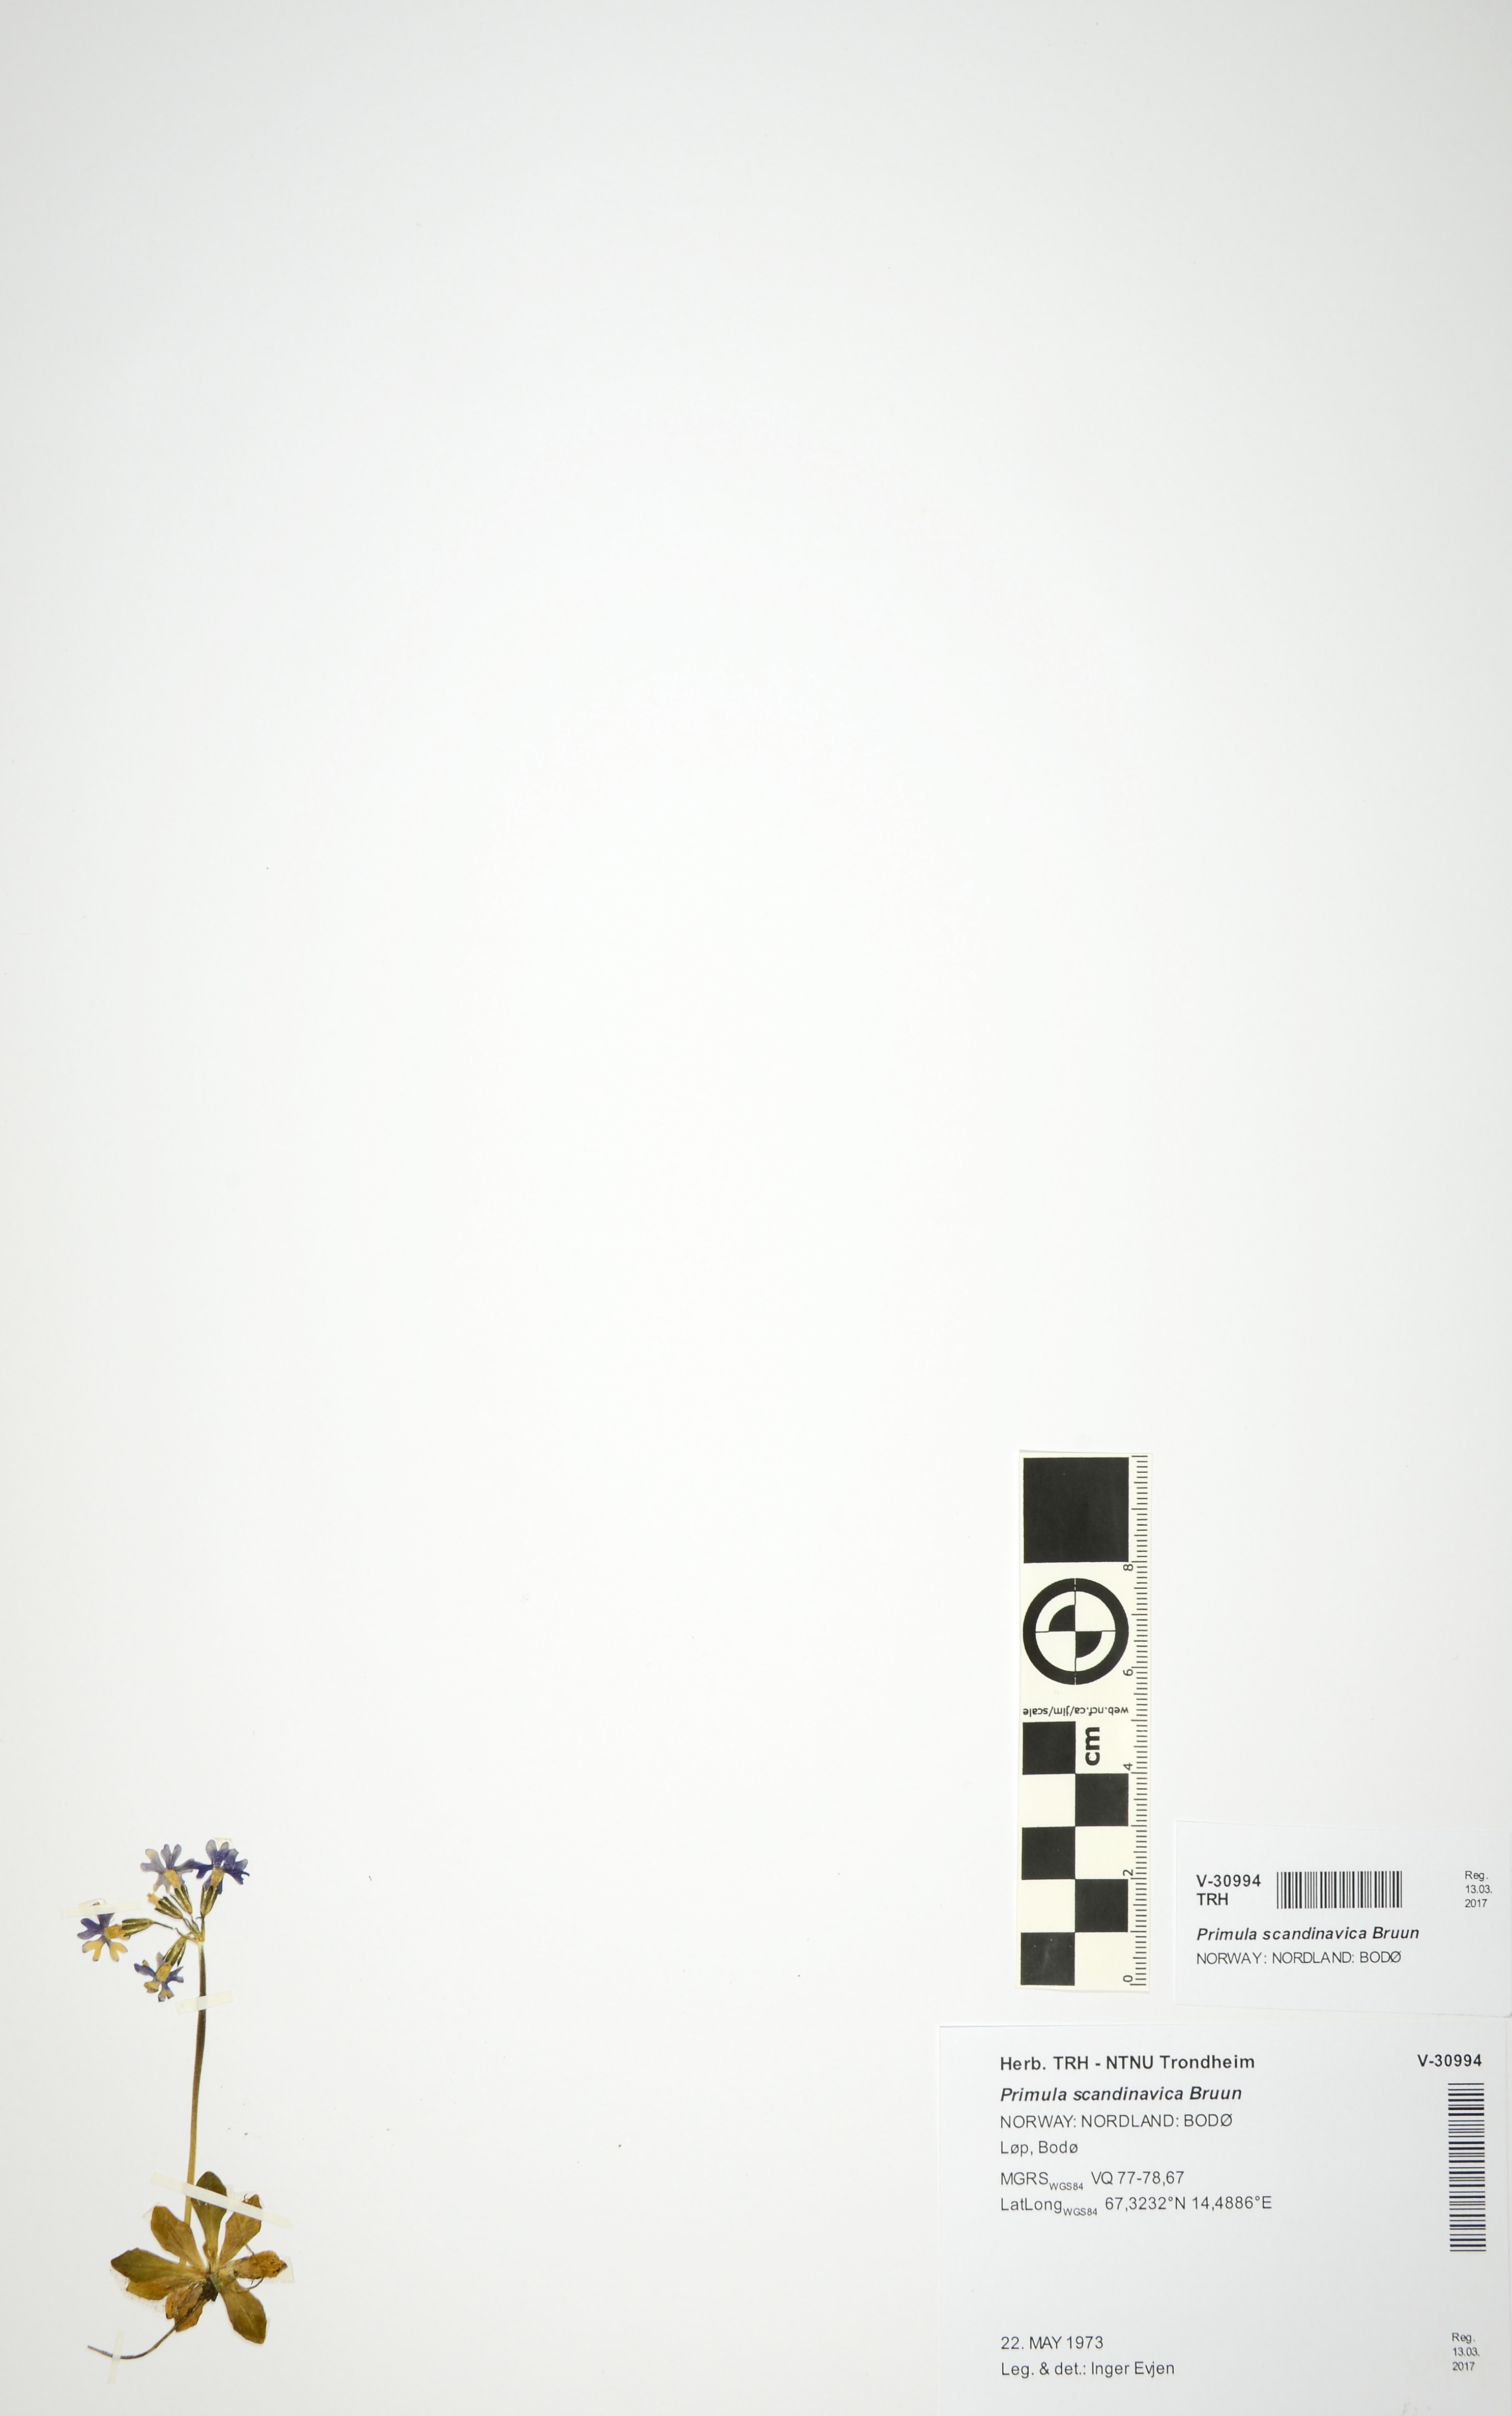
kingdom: Plantae
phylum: Tracheophyta
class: Magnoliopsida
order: Ericales
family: Primulaceae
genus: Primula
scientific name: Primula scandinavica
